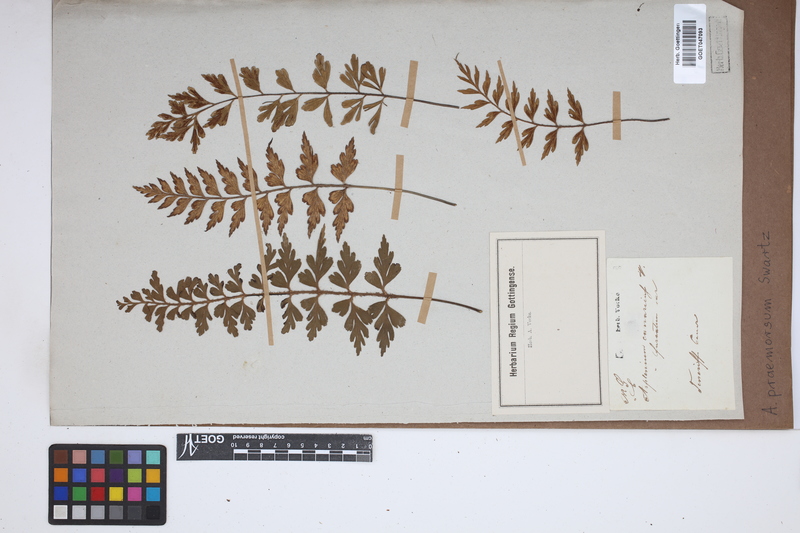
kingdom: Plantae
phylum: Tracheophyta
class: Polypodiopsida
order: Polypodiales
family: Aspleniaceae
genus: Asplenium
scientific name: Asplenium praemorsum
